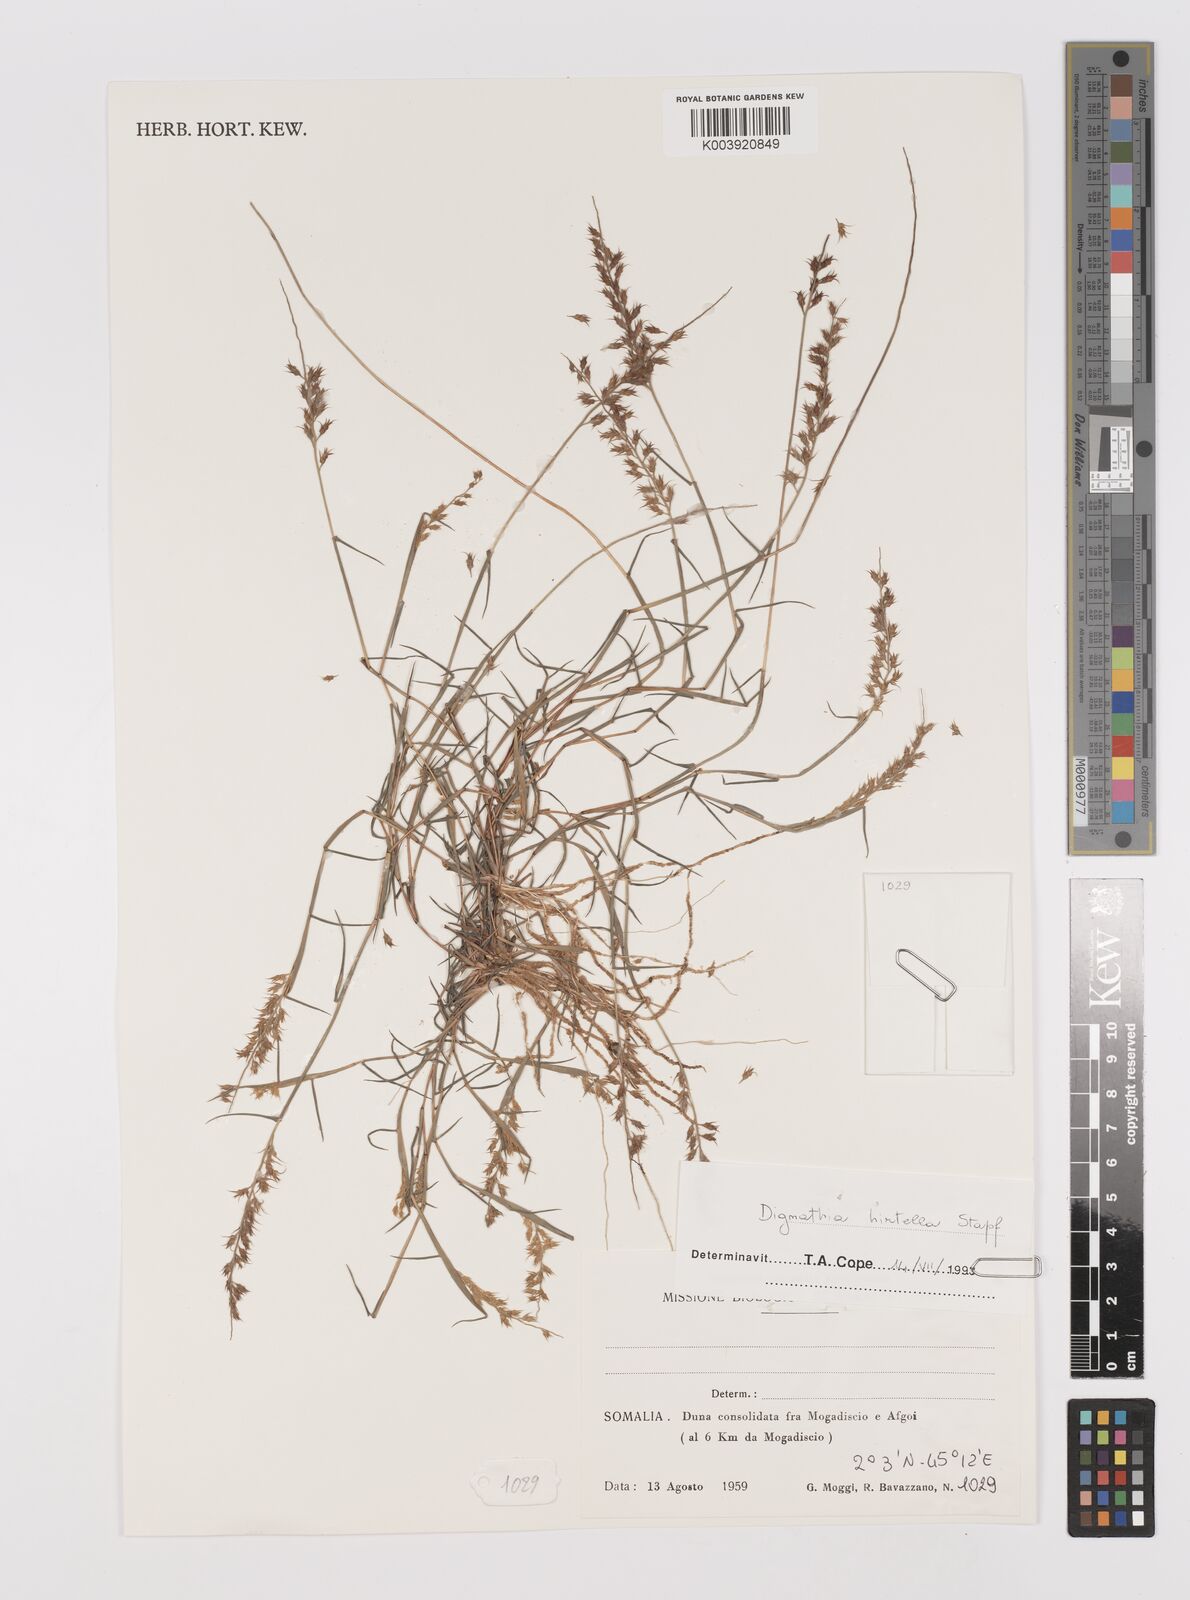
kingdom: Plantae
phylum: Tracheophyta
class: Liliopsida
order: Poales
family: Poaceae
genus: Dignathia
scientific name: Dignathia hirtella
